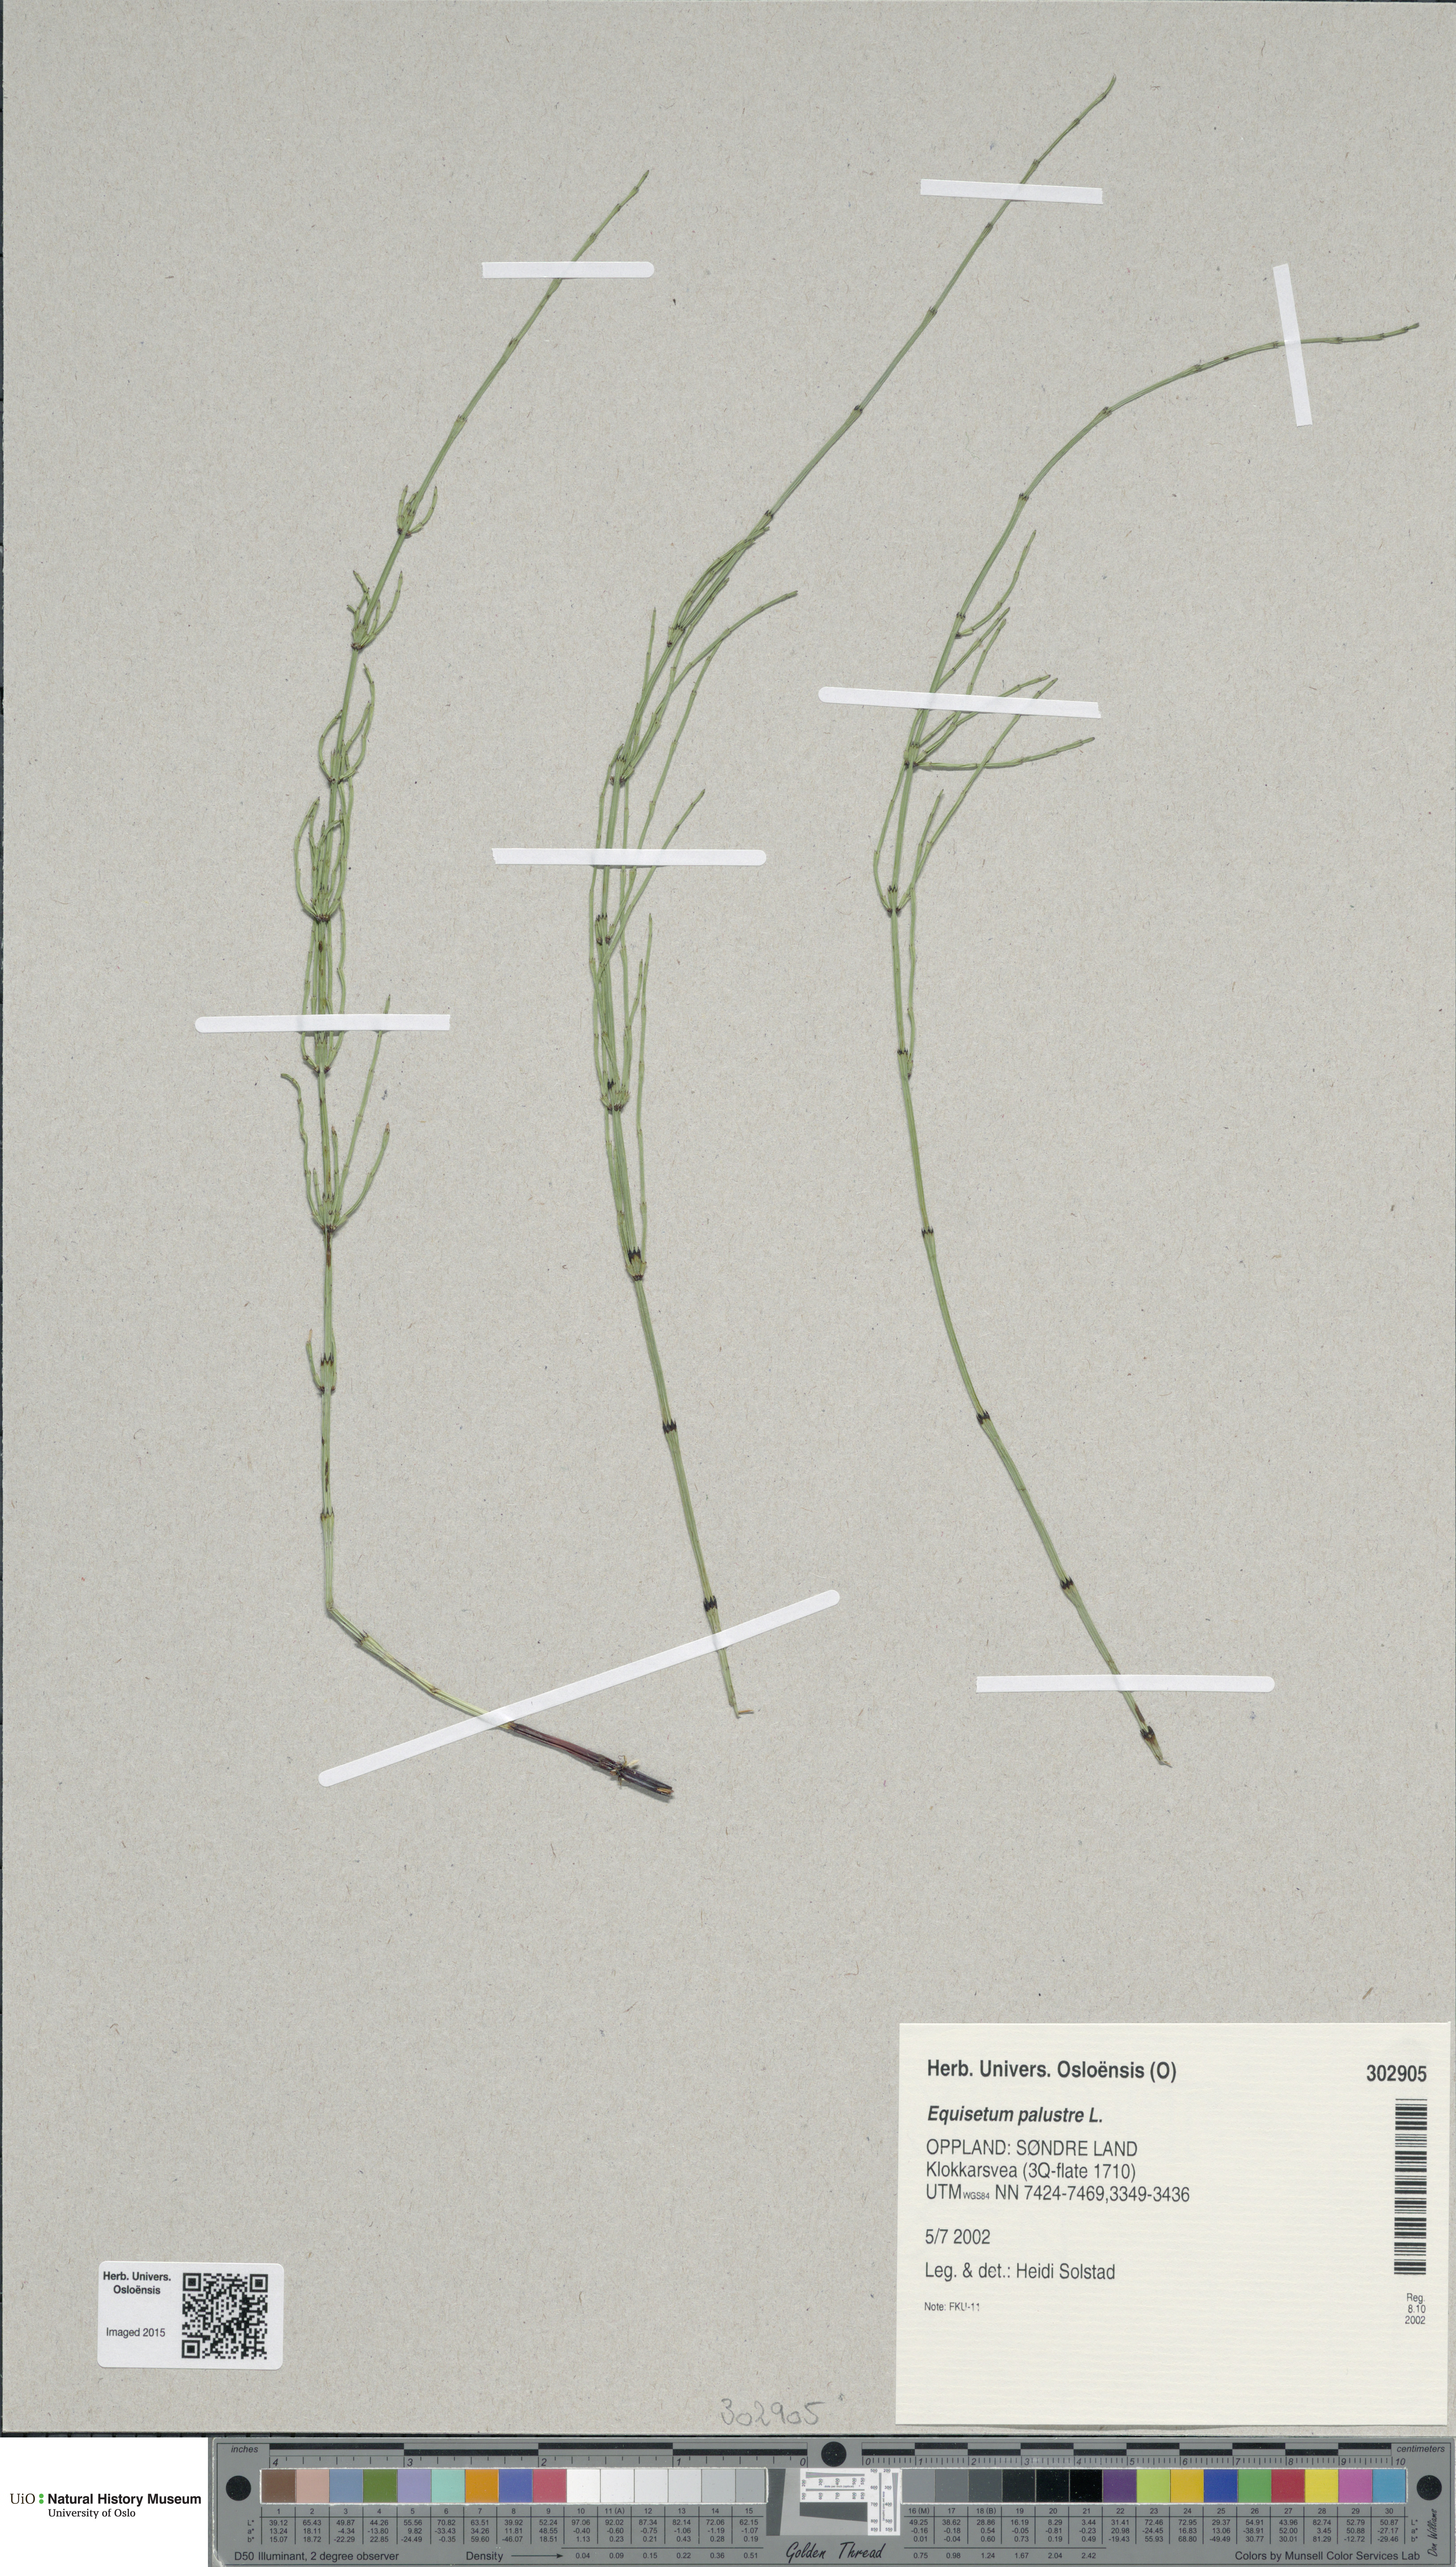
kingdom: Plantae
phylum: Tracheophyta
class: Polypodiopsida
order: Equisetales
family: Equisetaceae
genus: Equisetum
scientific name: Equisetum palustre
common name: Marsh horsetail
